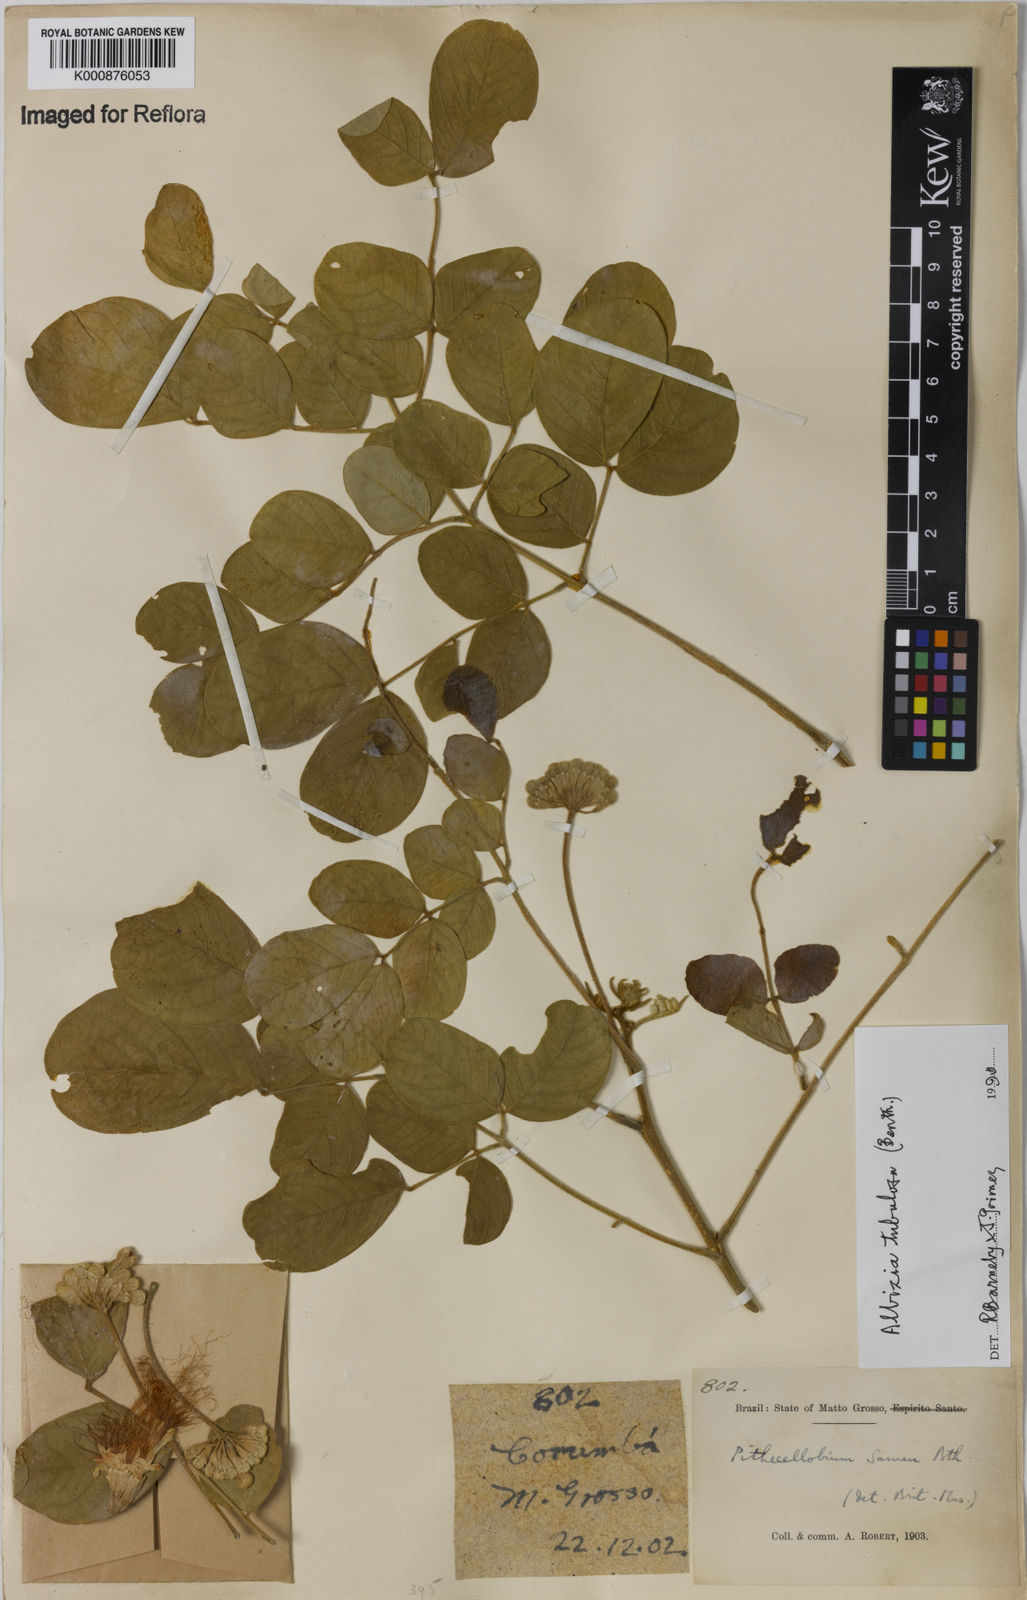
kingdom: Plantae
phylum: Tracheophyta
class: Magnoliopsida
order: Fabales
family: Fabaceae
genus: Samanea
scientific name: Samanea tubulosa
